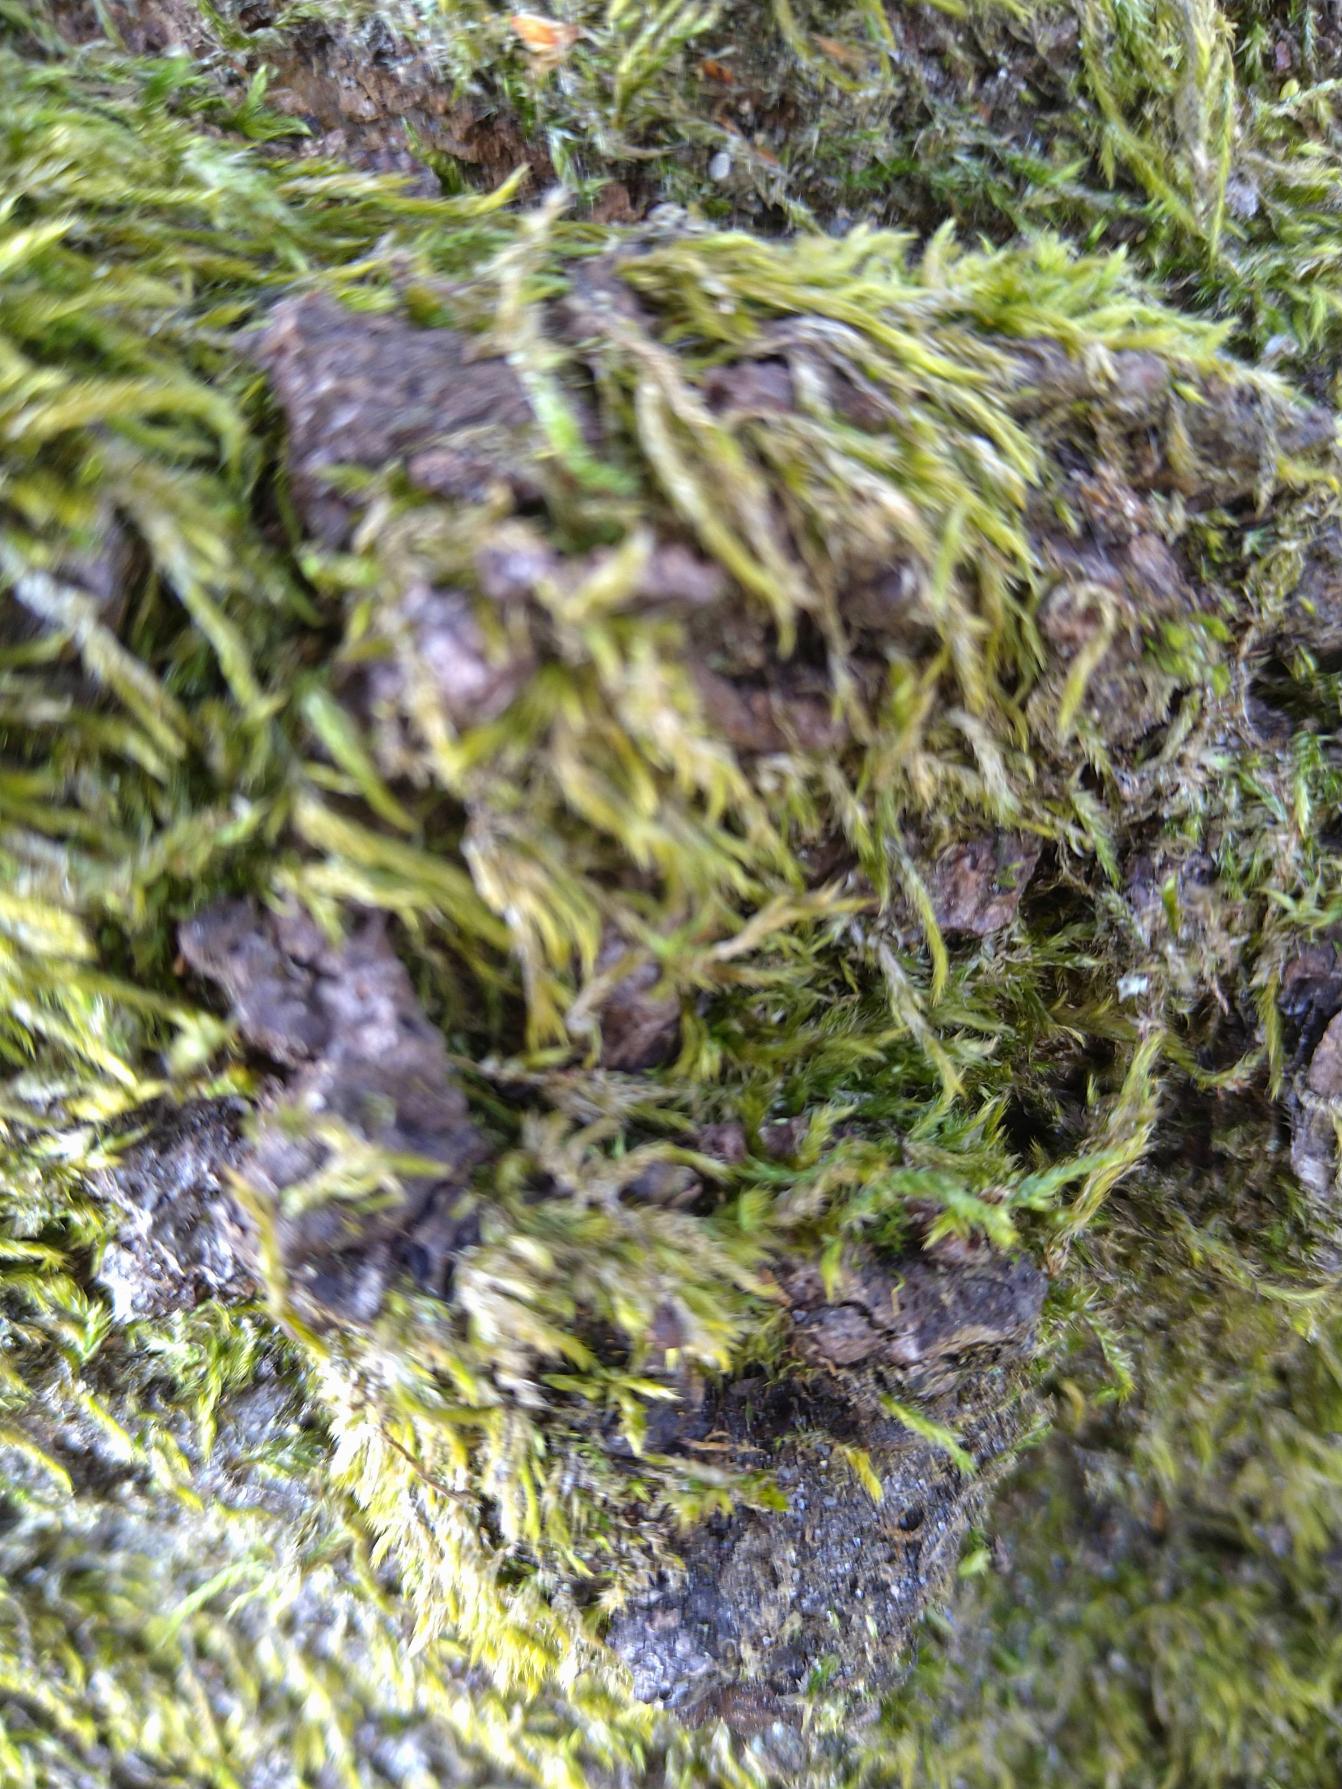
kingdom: Plantae
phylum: Bryophyta
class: Bryopsida
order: Hypnales
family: Hypnaceae
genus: Hypnum
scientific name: Hypnum
